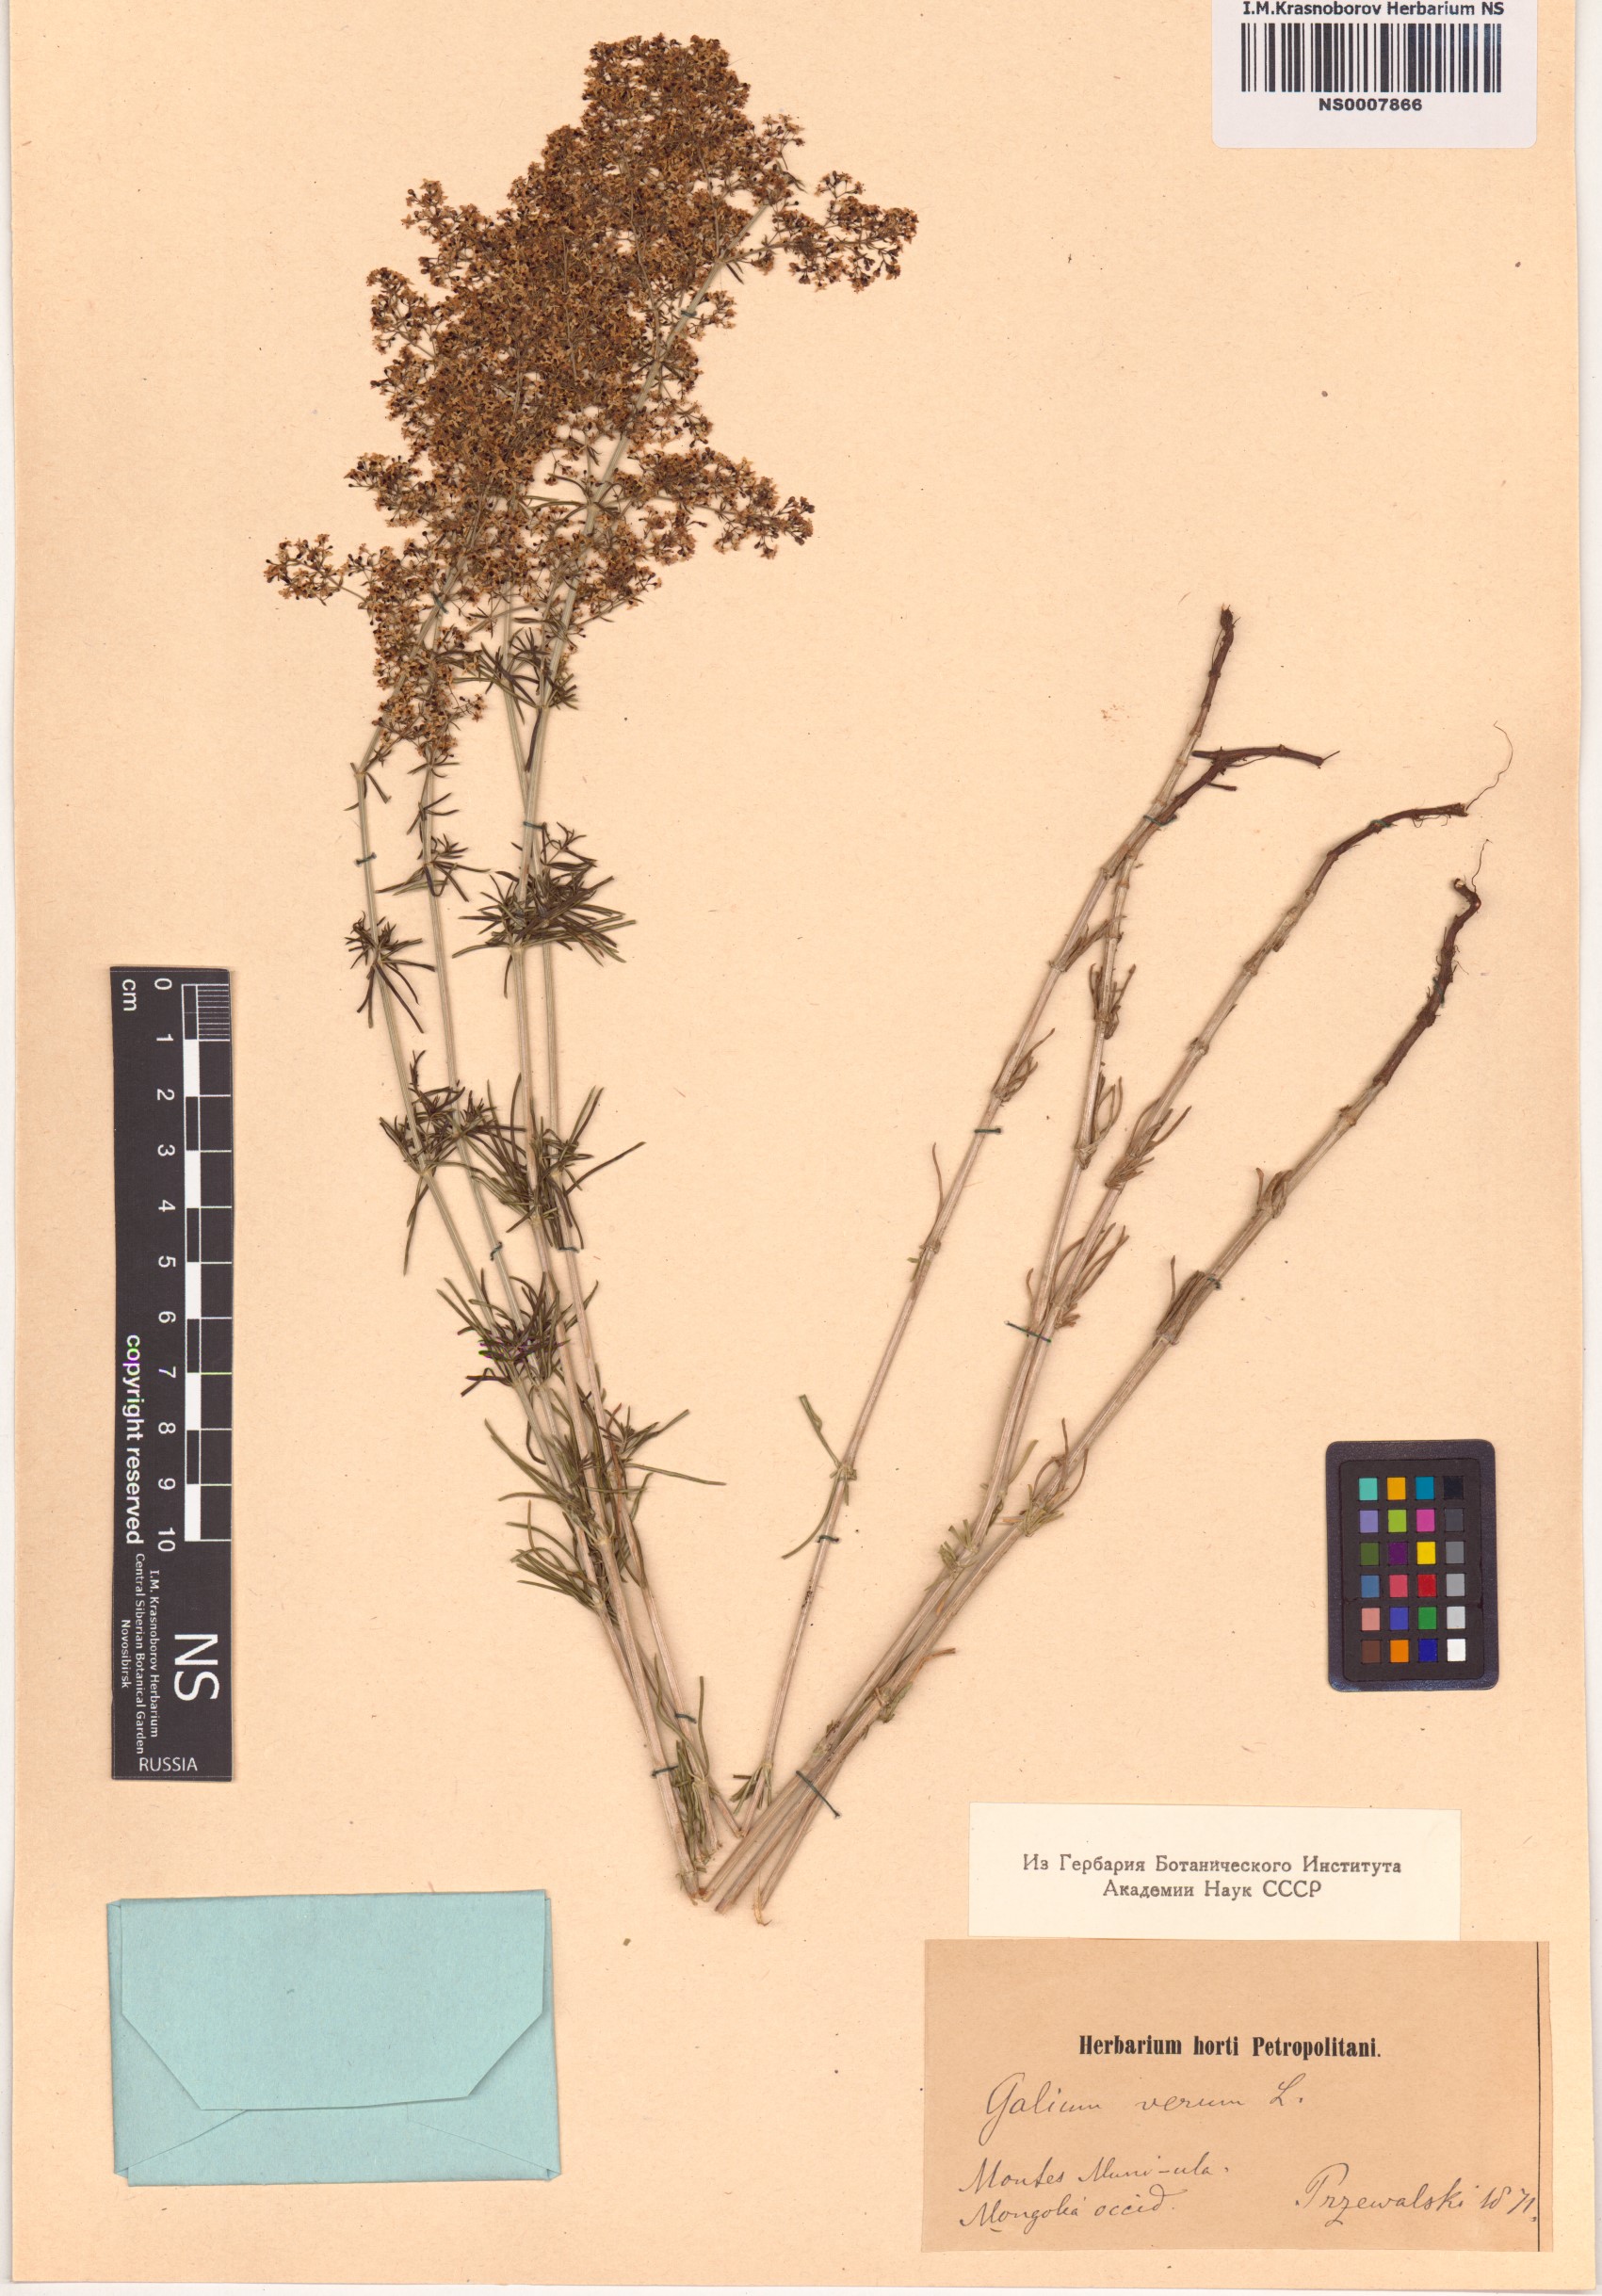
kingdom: Plantae
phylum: Tracheophyta
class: Magnoliopsida
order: Gentianales
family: Rubiaceae
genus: Galium
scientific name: Galium verum
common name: Lady's bedstraw
